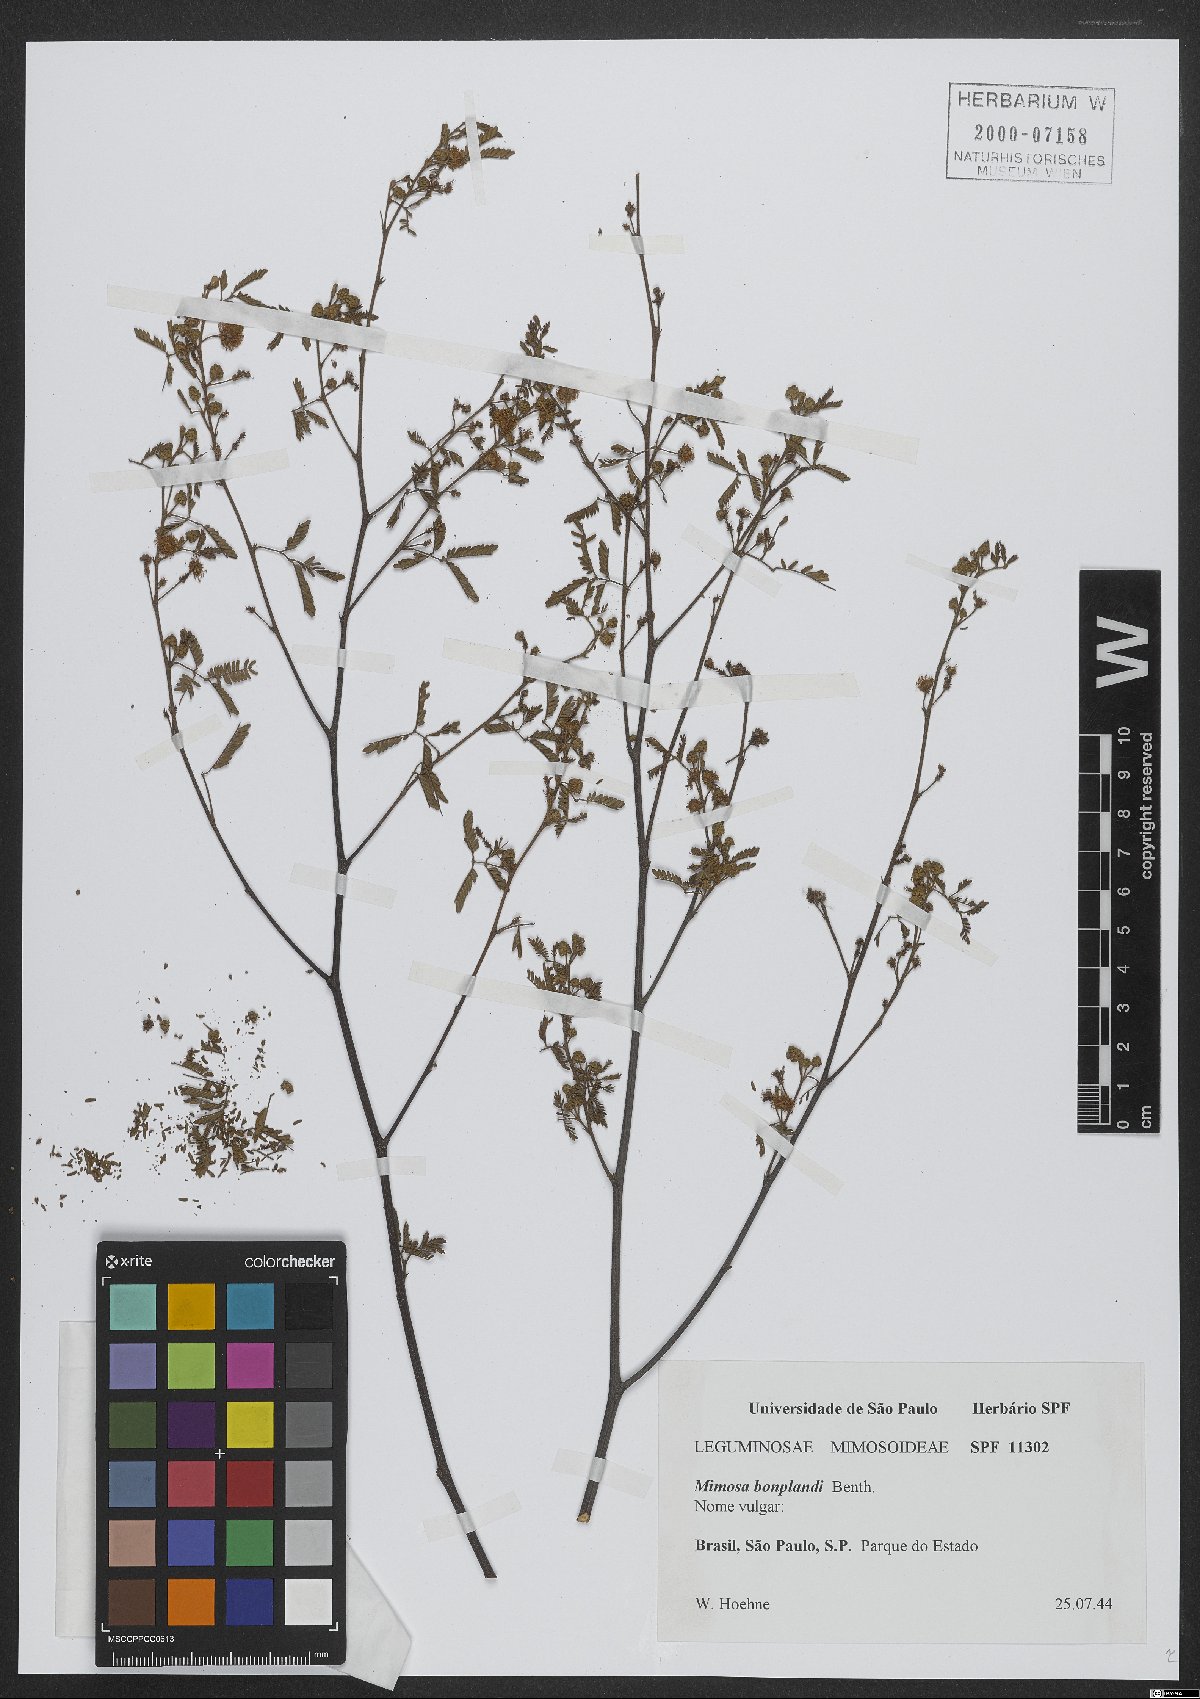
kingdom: Plantae
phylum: Tracheophyta
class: Magnoliopsida
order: Fabales
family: Fabaceae
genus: Mimosa
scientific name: Mimosa bonplandii
